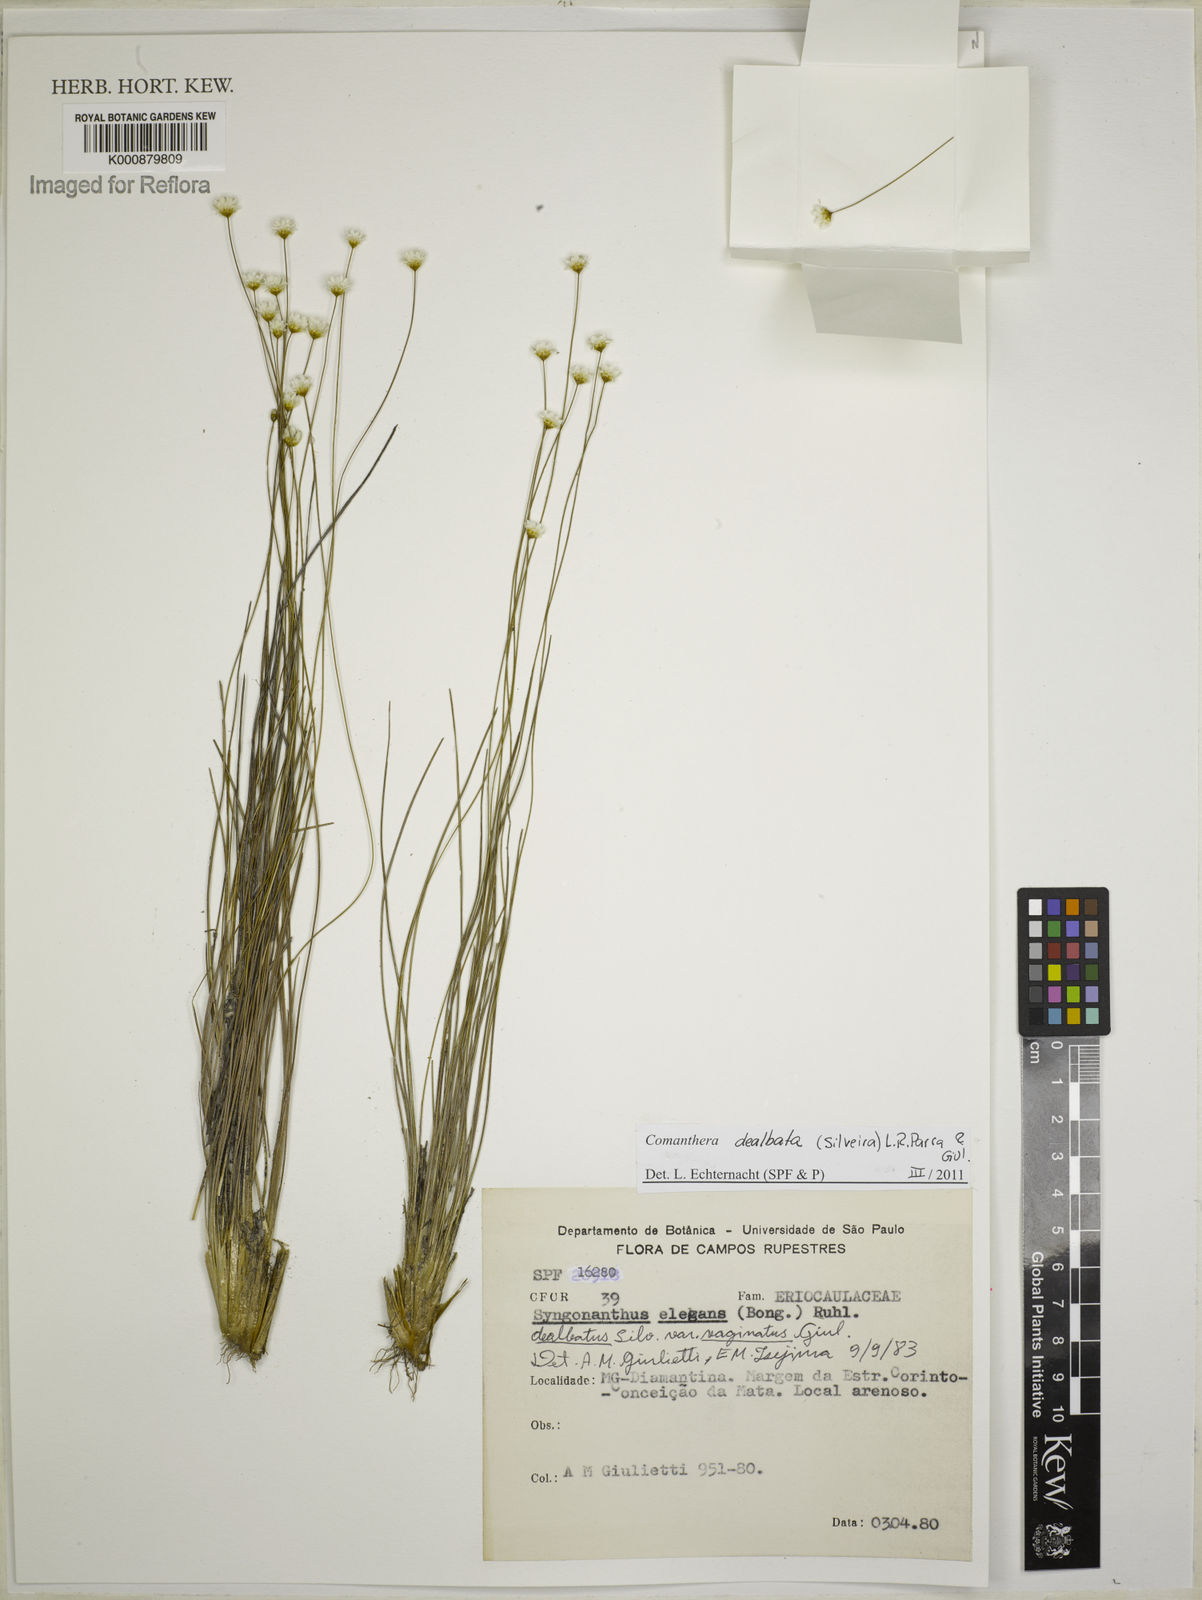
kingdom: Plantae
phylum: Tracheophyta
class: Liliopsida
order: Poales
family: Eriocaulaceae
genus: Comanthera
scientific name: Comanthera dealbata
